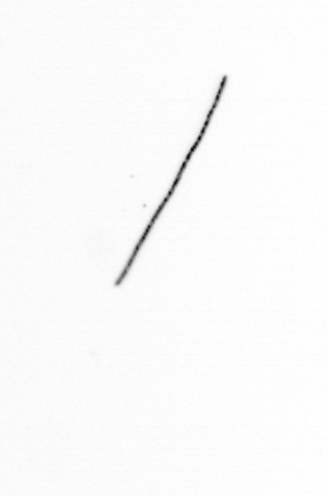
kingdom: Chromista
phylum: Ochrophyta
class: Bacillariophyceae
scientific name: Bacillariophyceae
